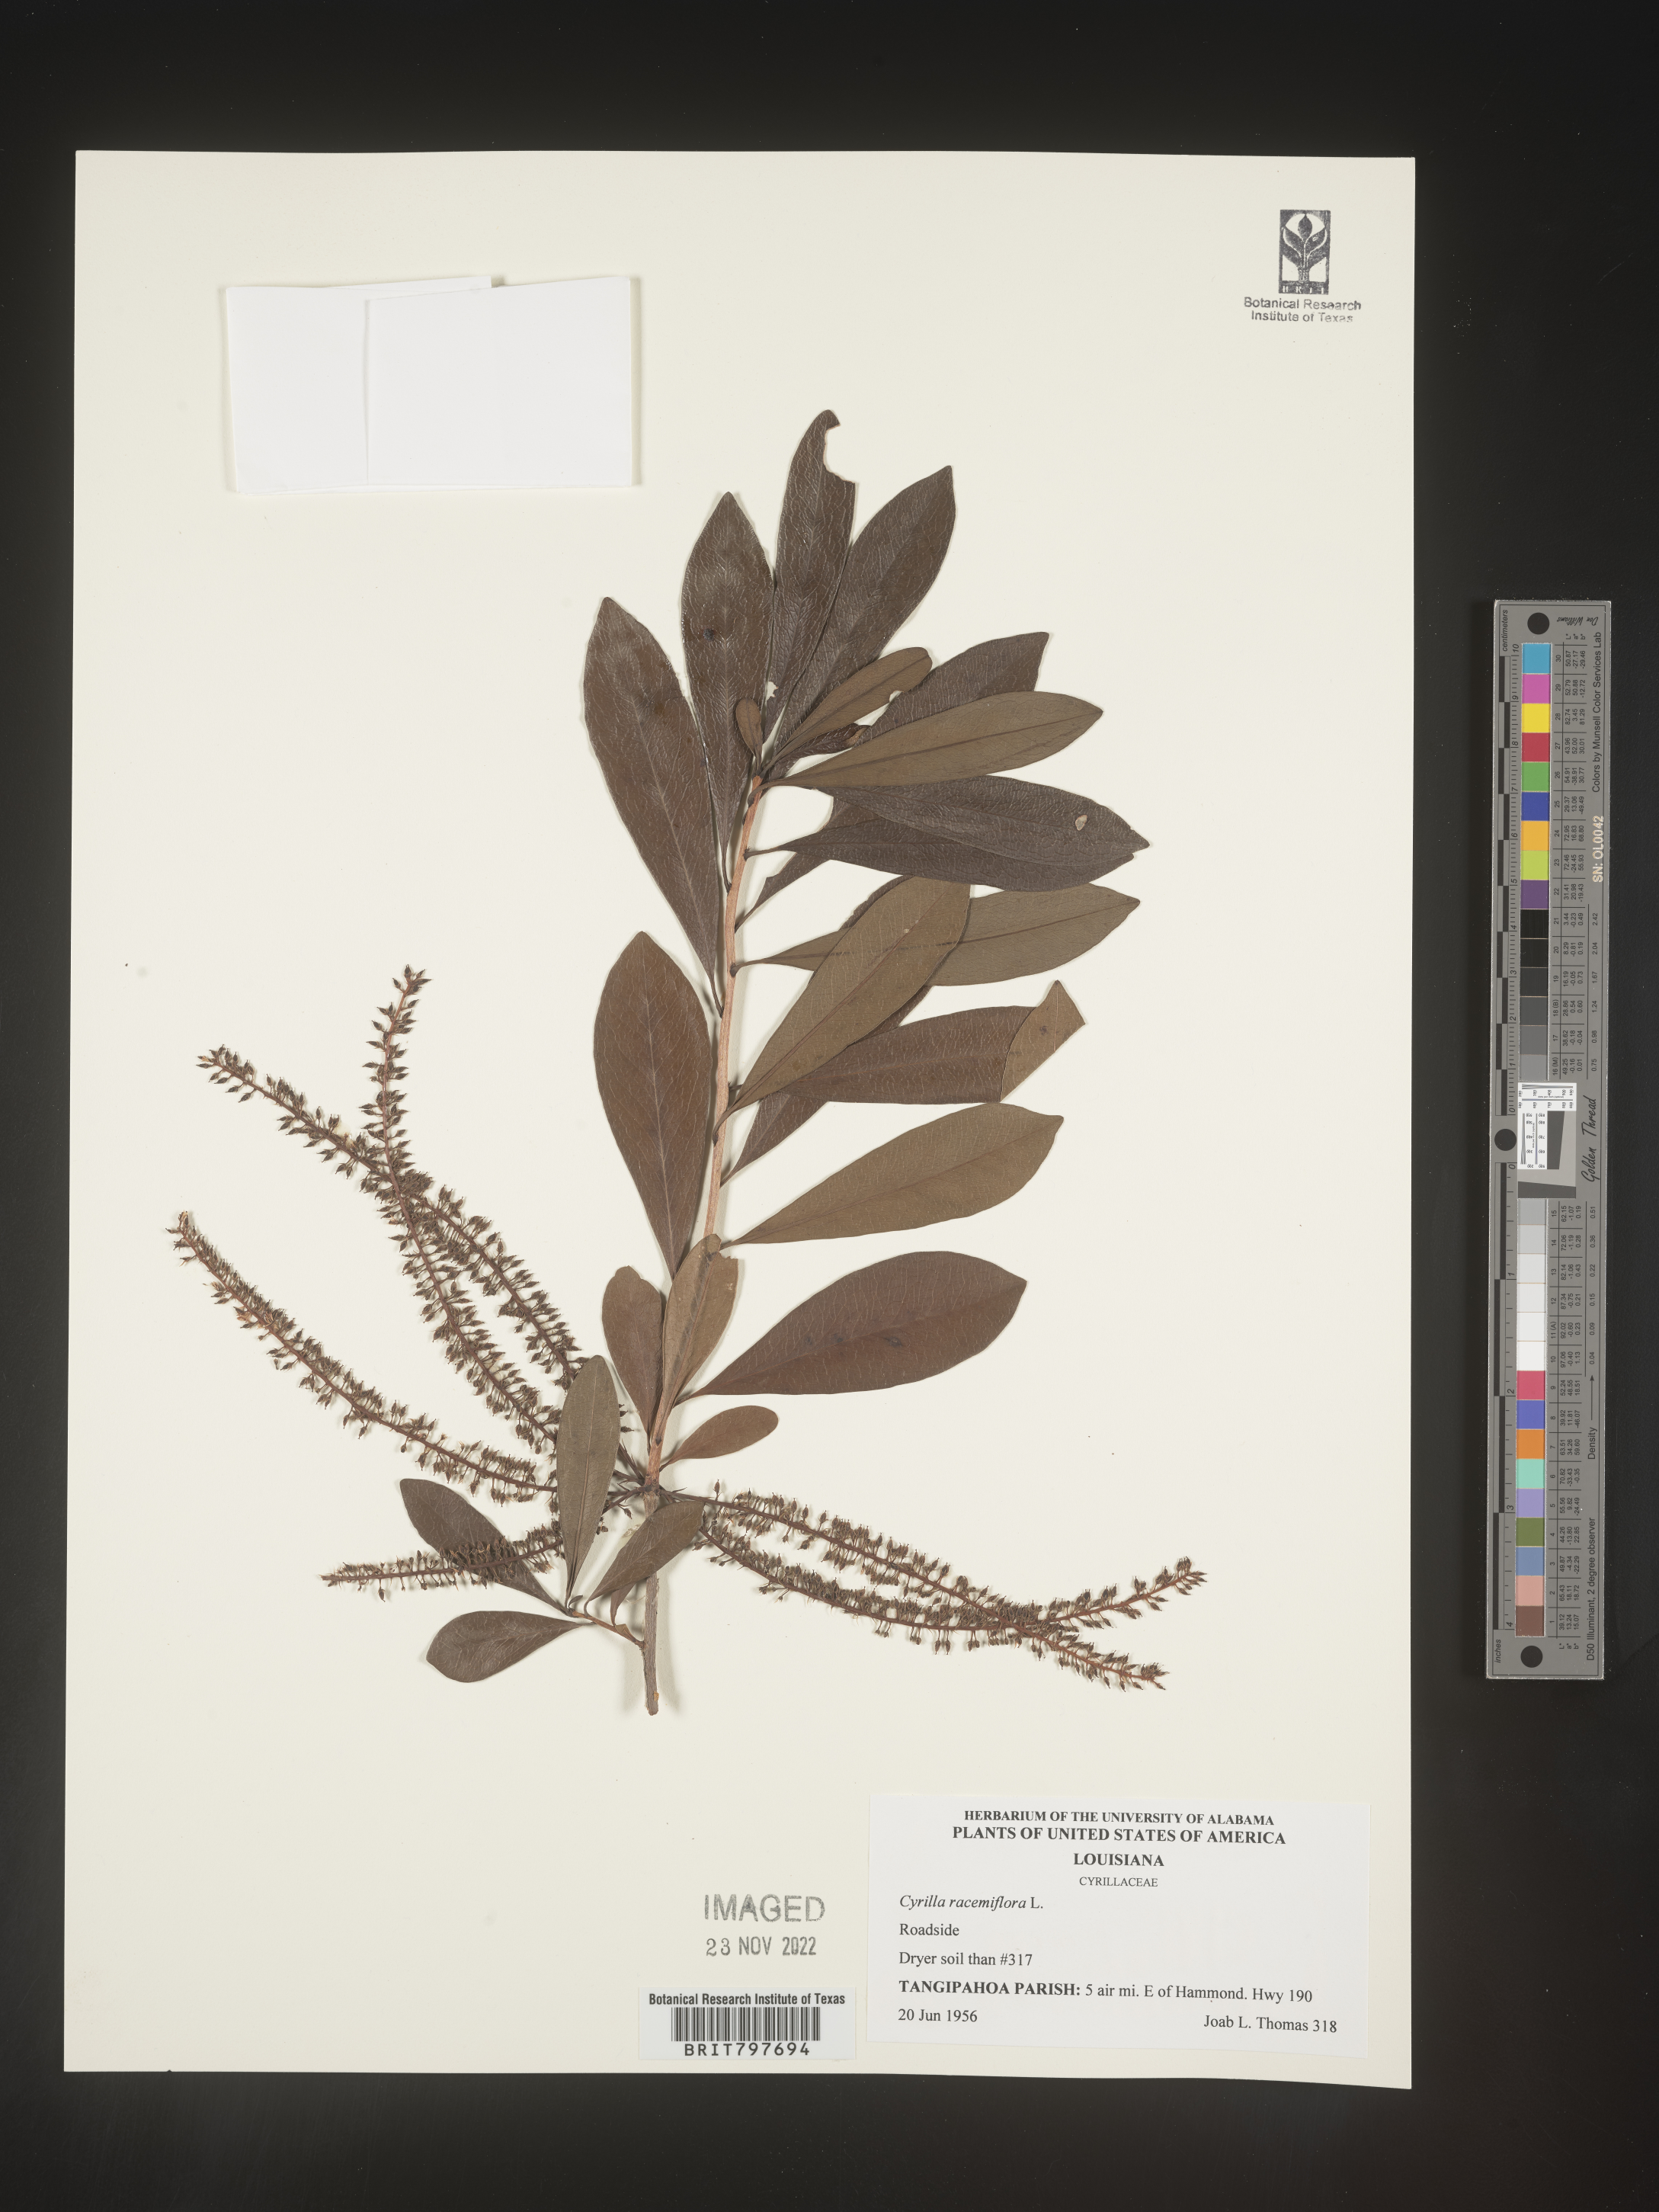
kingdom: Plantae
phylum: Tracheophyta
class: Magnoliopsida
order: Ericales
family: Cyrillaceae
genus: Cyrilla
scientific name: Cyrilla racemiflora
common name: Black titi
